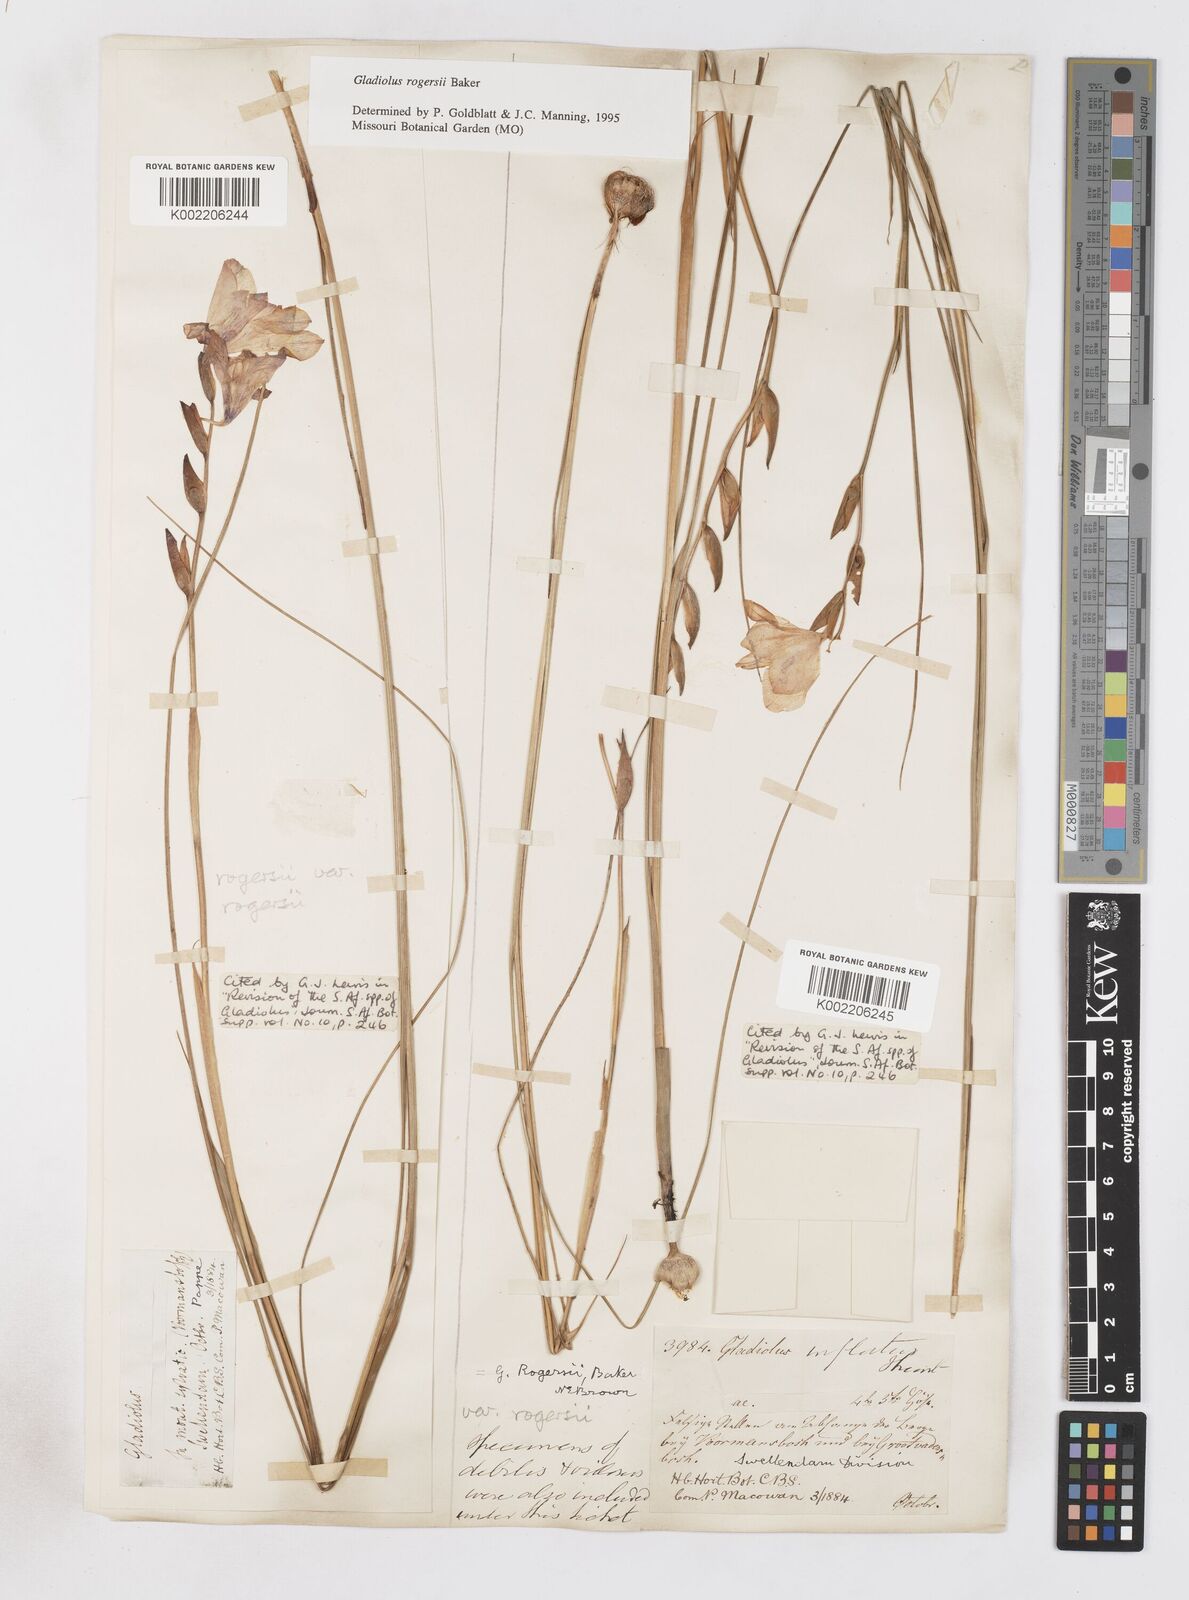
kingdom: Plantae
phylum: Tracheophyta
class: Liliopsida
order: Asparagales
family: Iridaceae
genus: Gladiolus
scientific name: Gladiolus rogersii
